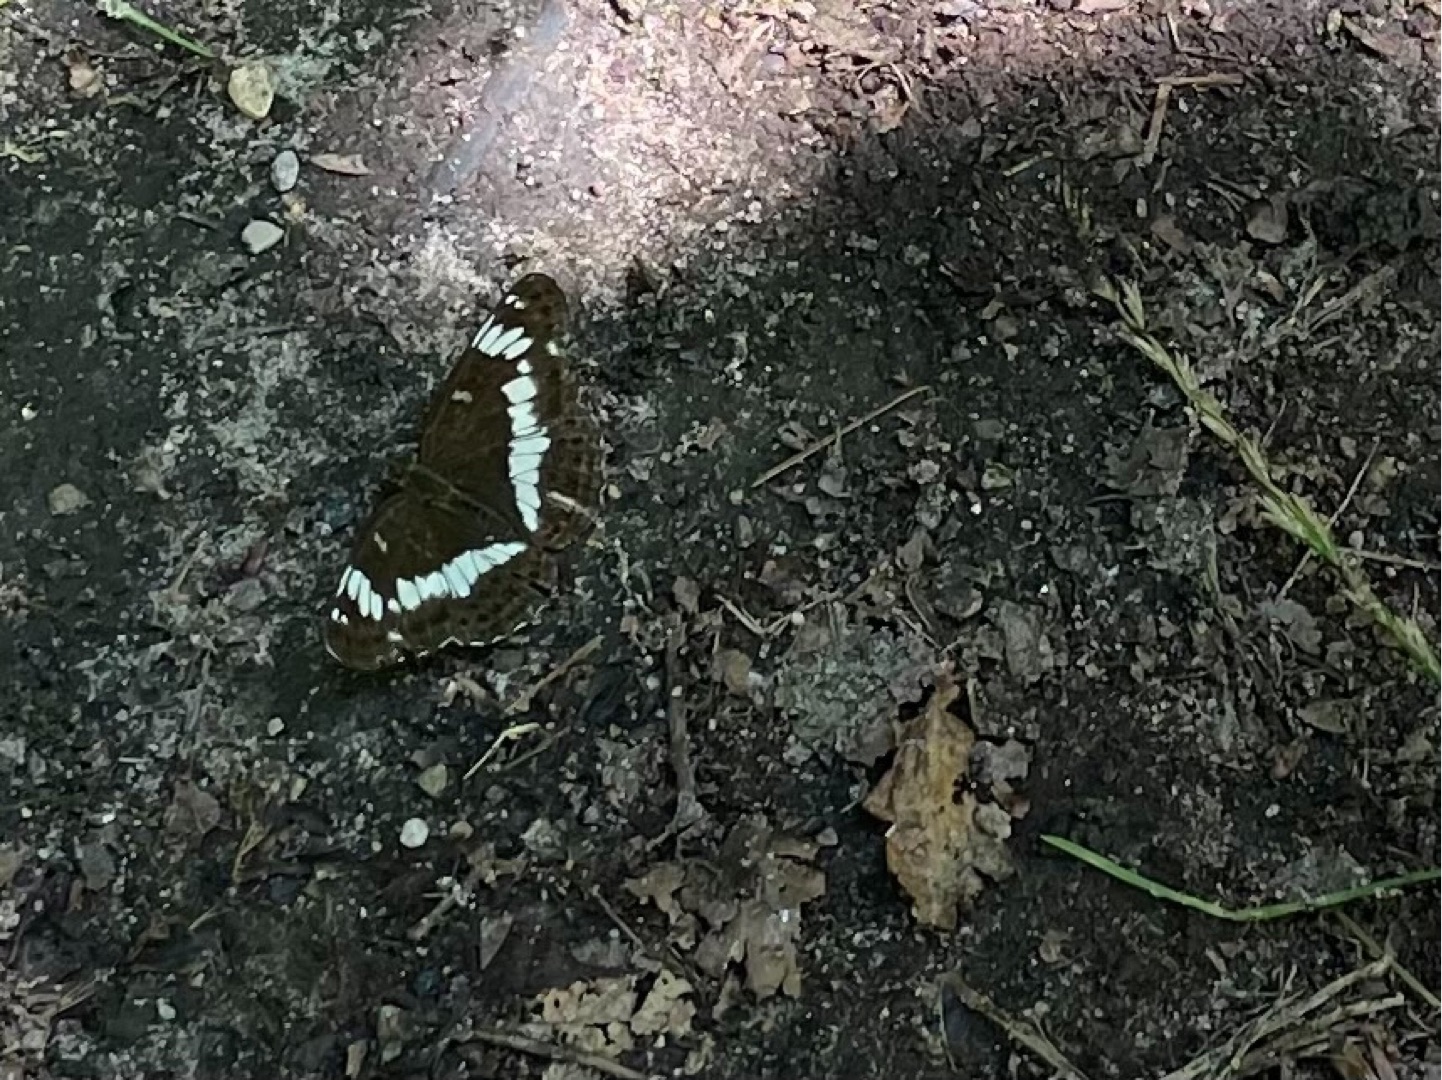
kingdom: Animalia
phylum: Arthropoda
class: Insecta
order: Lepidoptera
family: Nymphalidae
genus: Ladoga
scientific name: Ladoga camilla
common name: Hvid admiral
